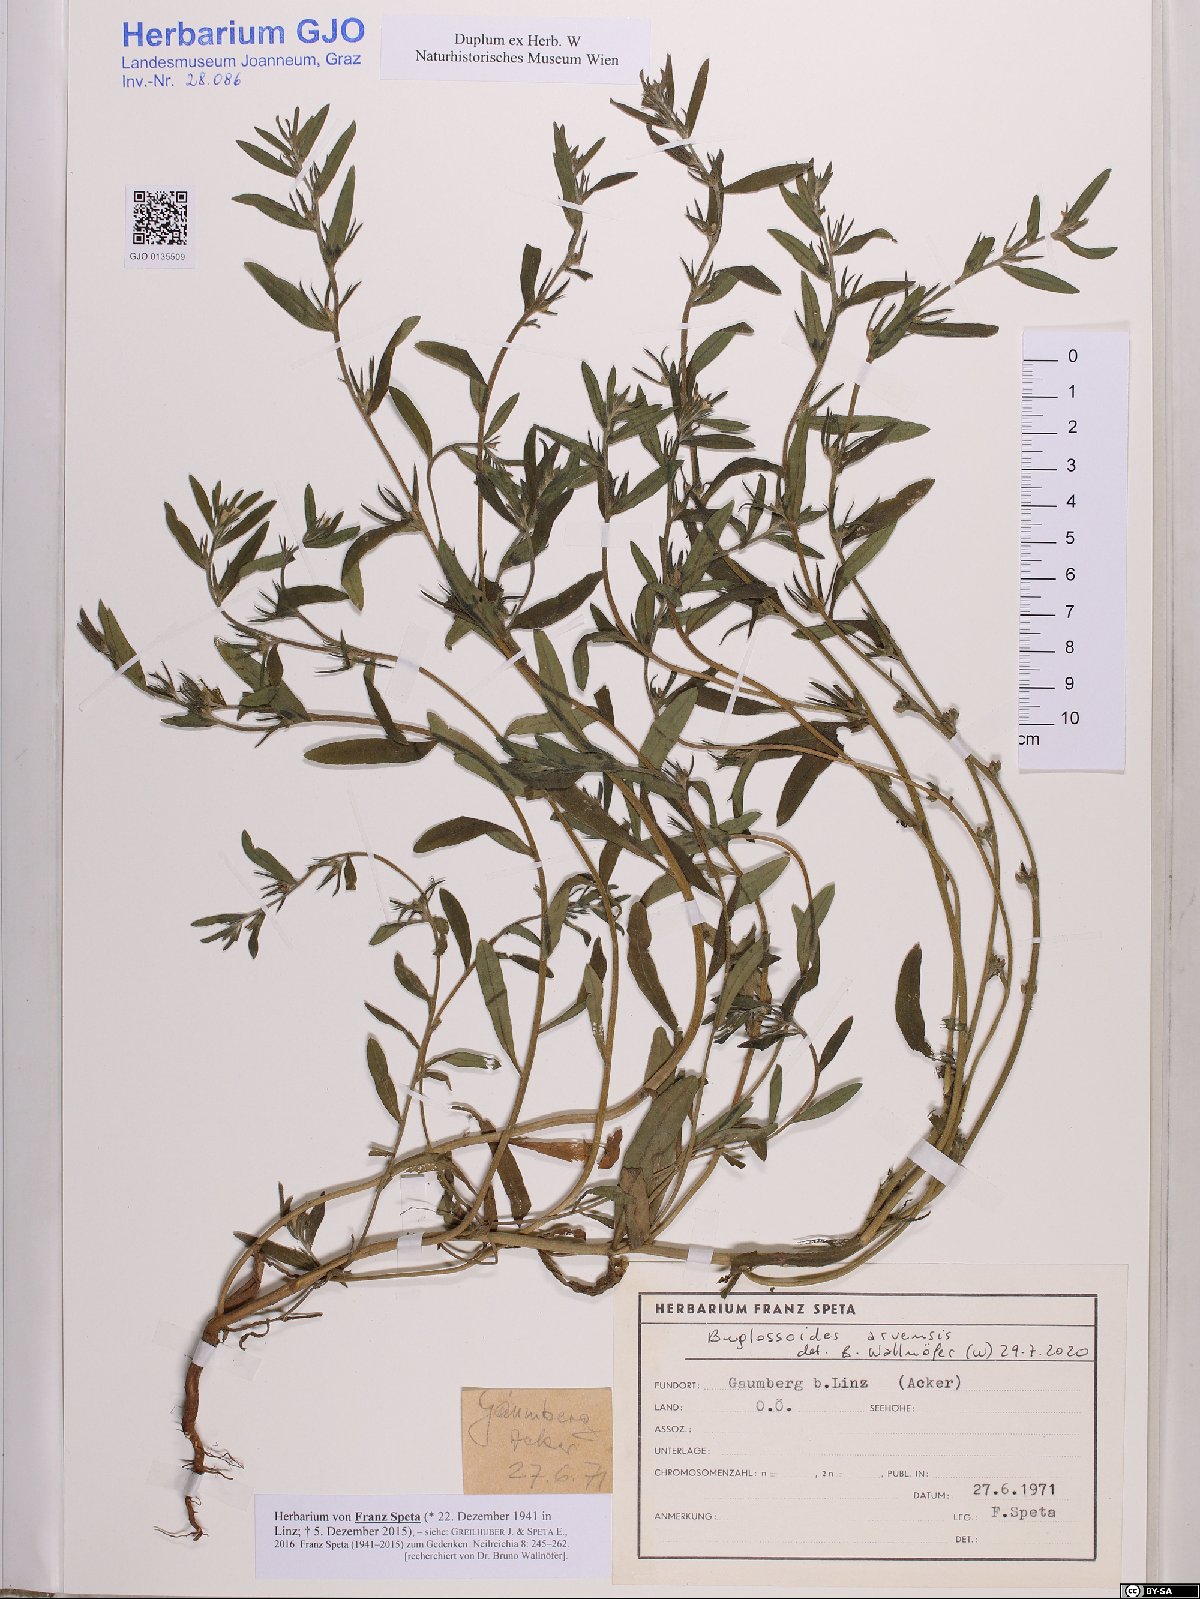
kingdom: Plantae
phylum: Tracheophyta
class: Magnoliopsida
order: Boraginales
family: Boraginaceae
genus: Buglossoides
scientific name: Buglossoides arvensis
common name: Corn gromwell
